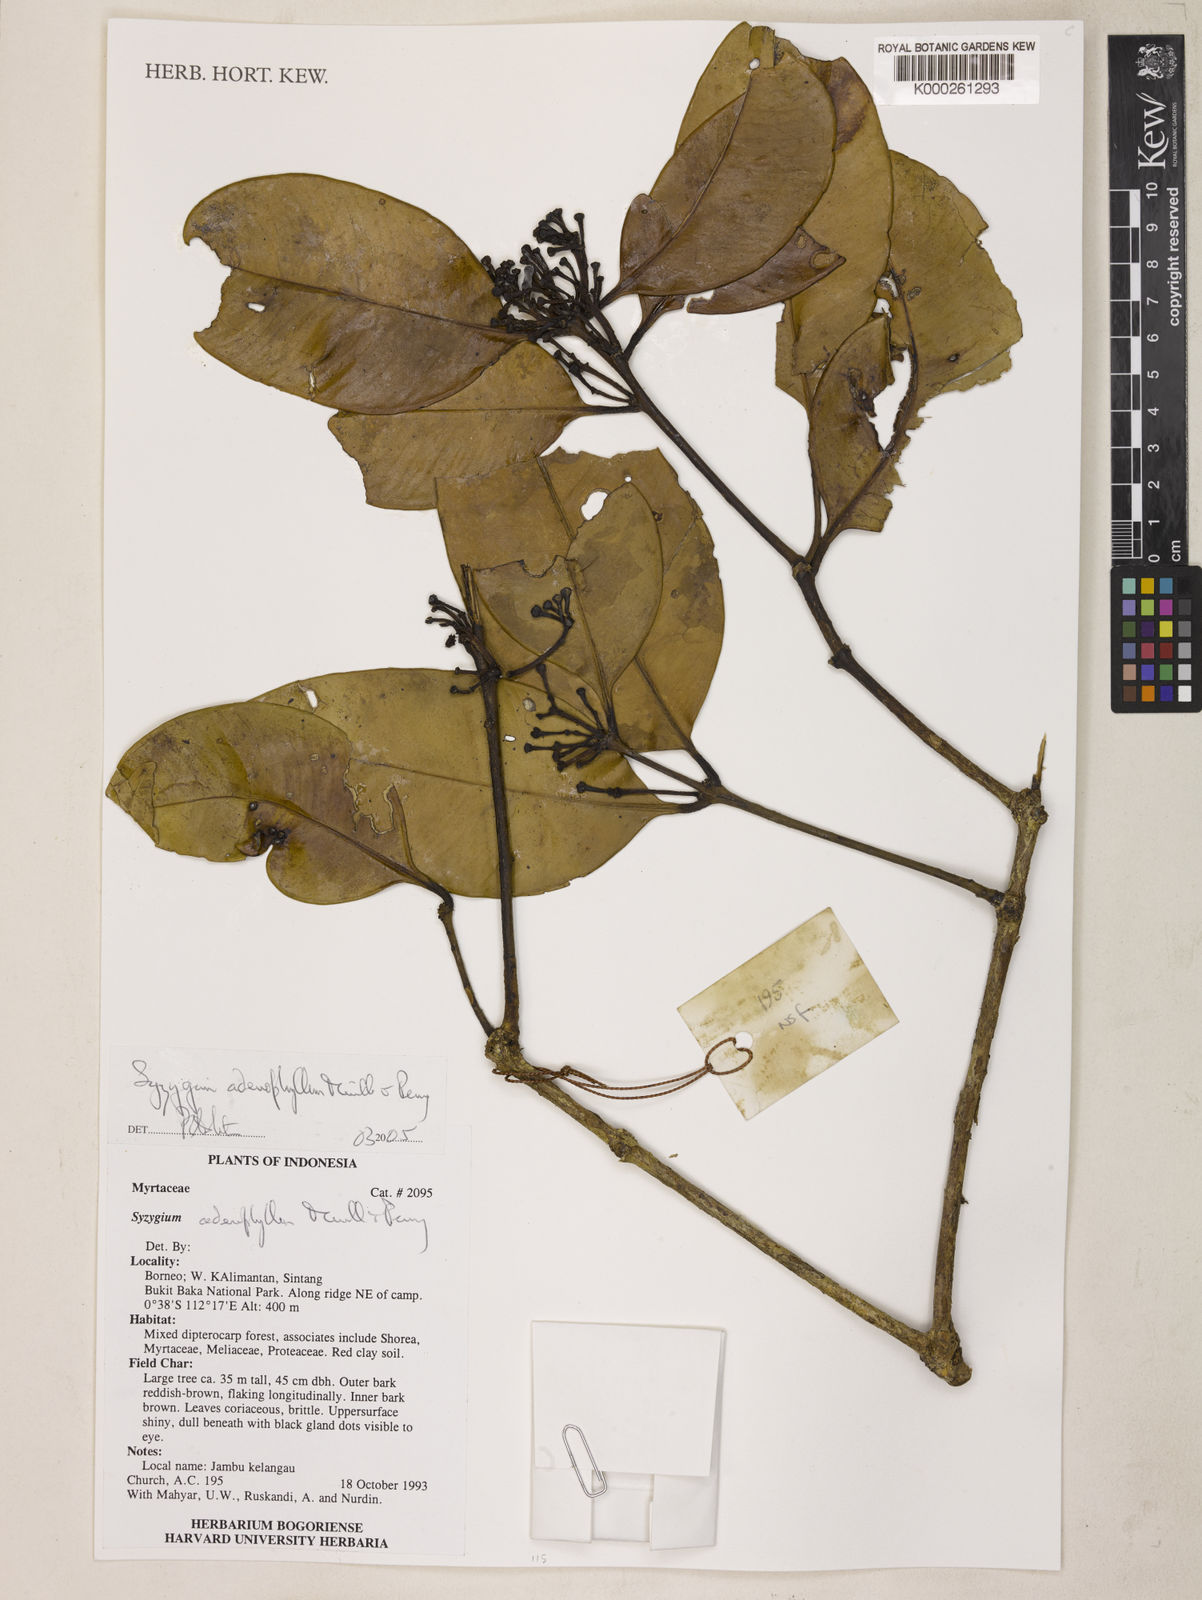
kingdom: Plantae
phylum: Tracheophyta
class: Magnoliopsida
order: Myrtales
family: Myrtaceae
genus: Syzygium
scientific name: Syzygium adenophyllum
